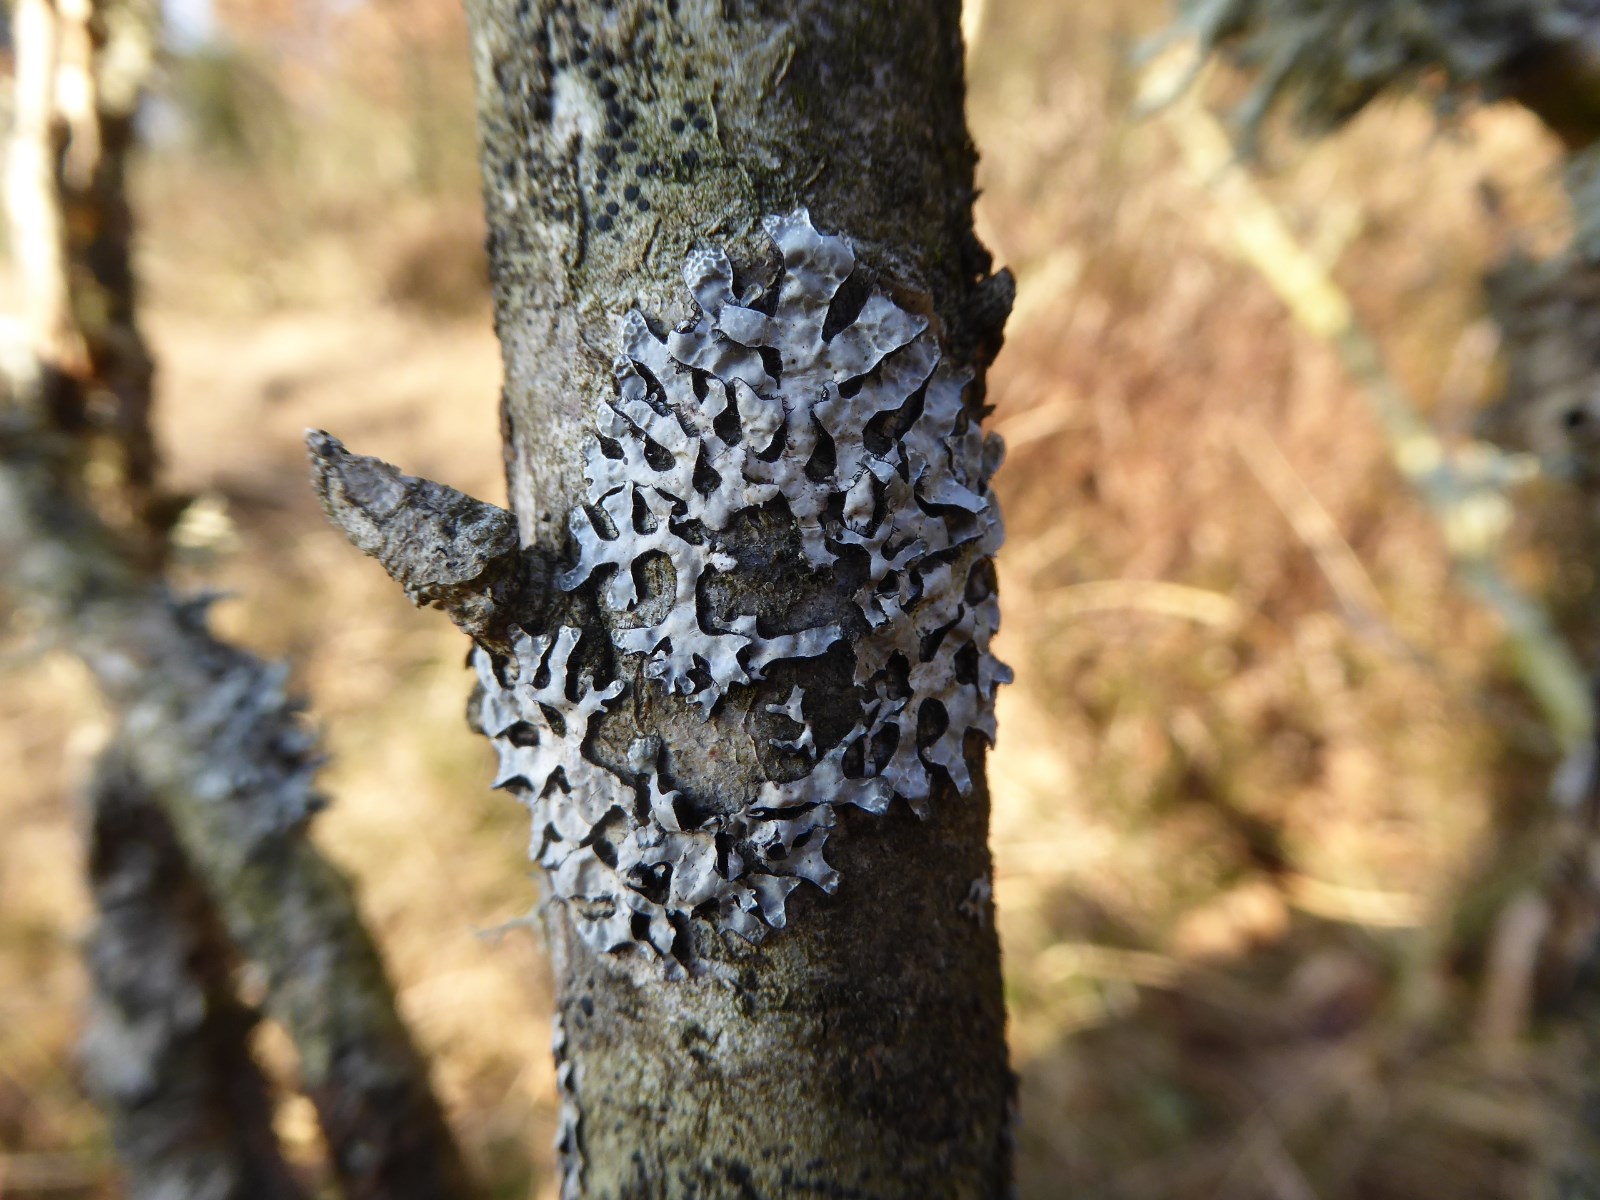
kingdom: Fungi
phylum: Ascomycota
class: Lecanoromycetes
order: Lecanorales
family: Parmeliaceae
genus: Parmelia
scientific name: Parmelia sulcata
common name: rynket skållav
